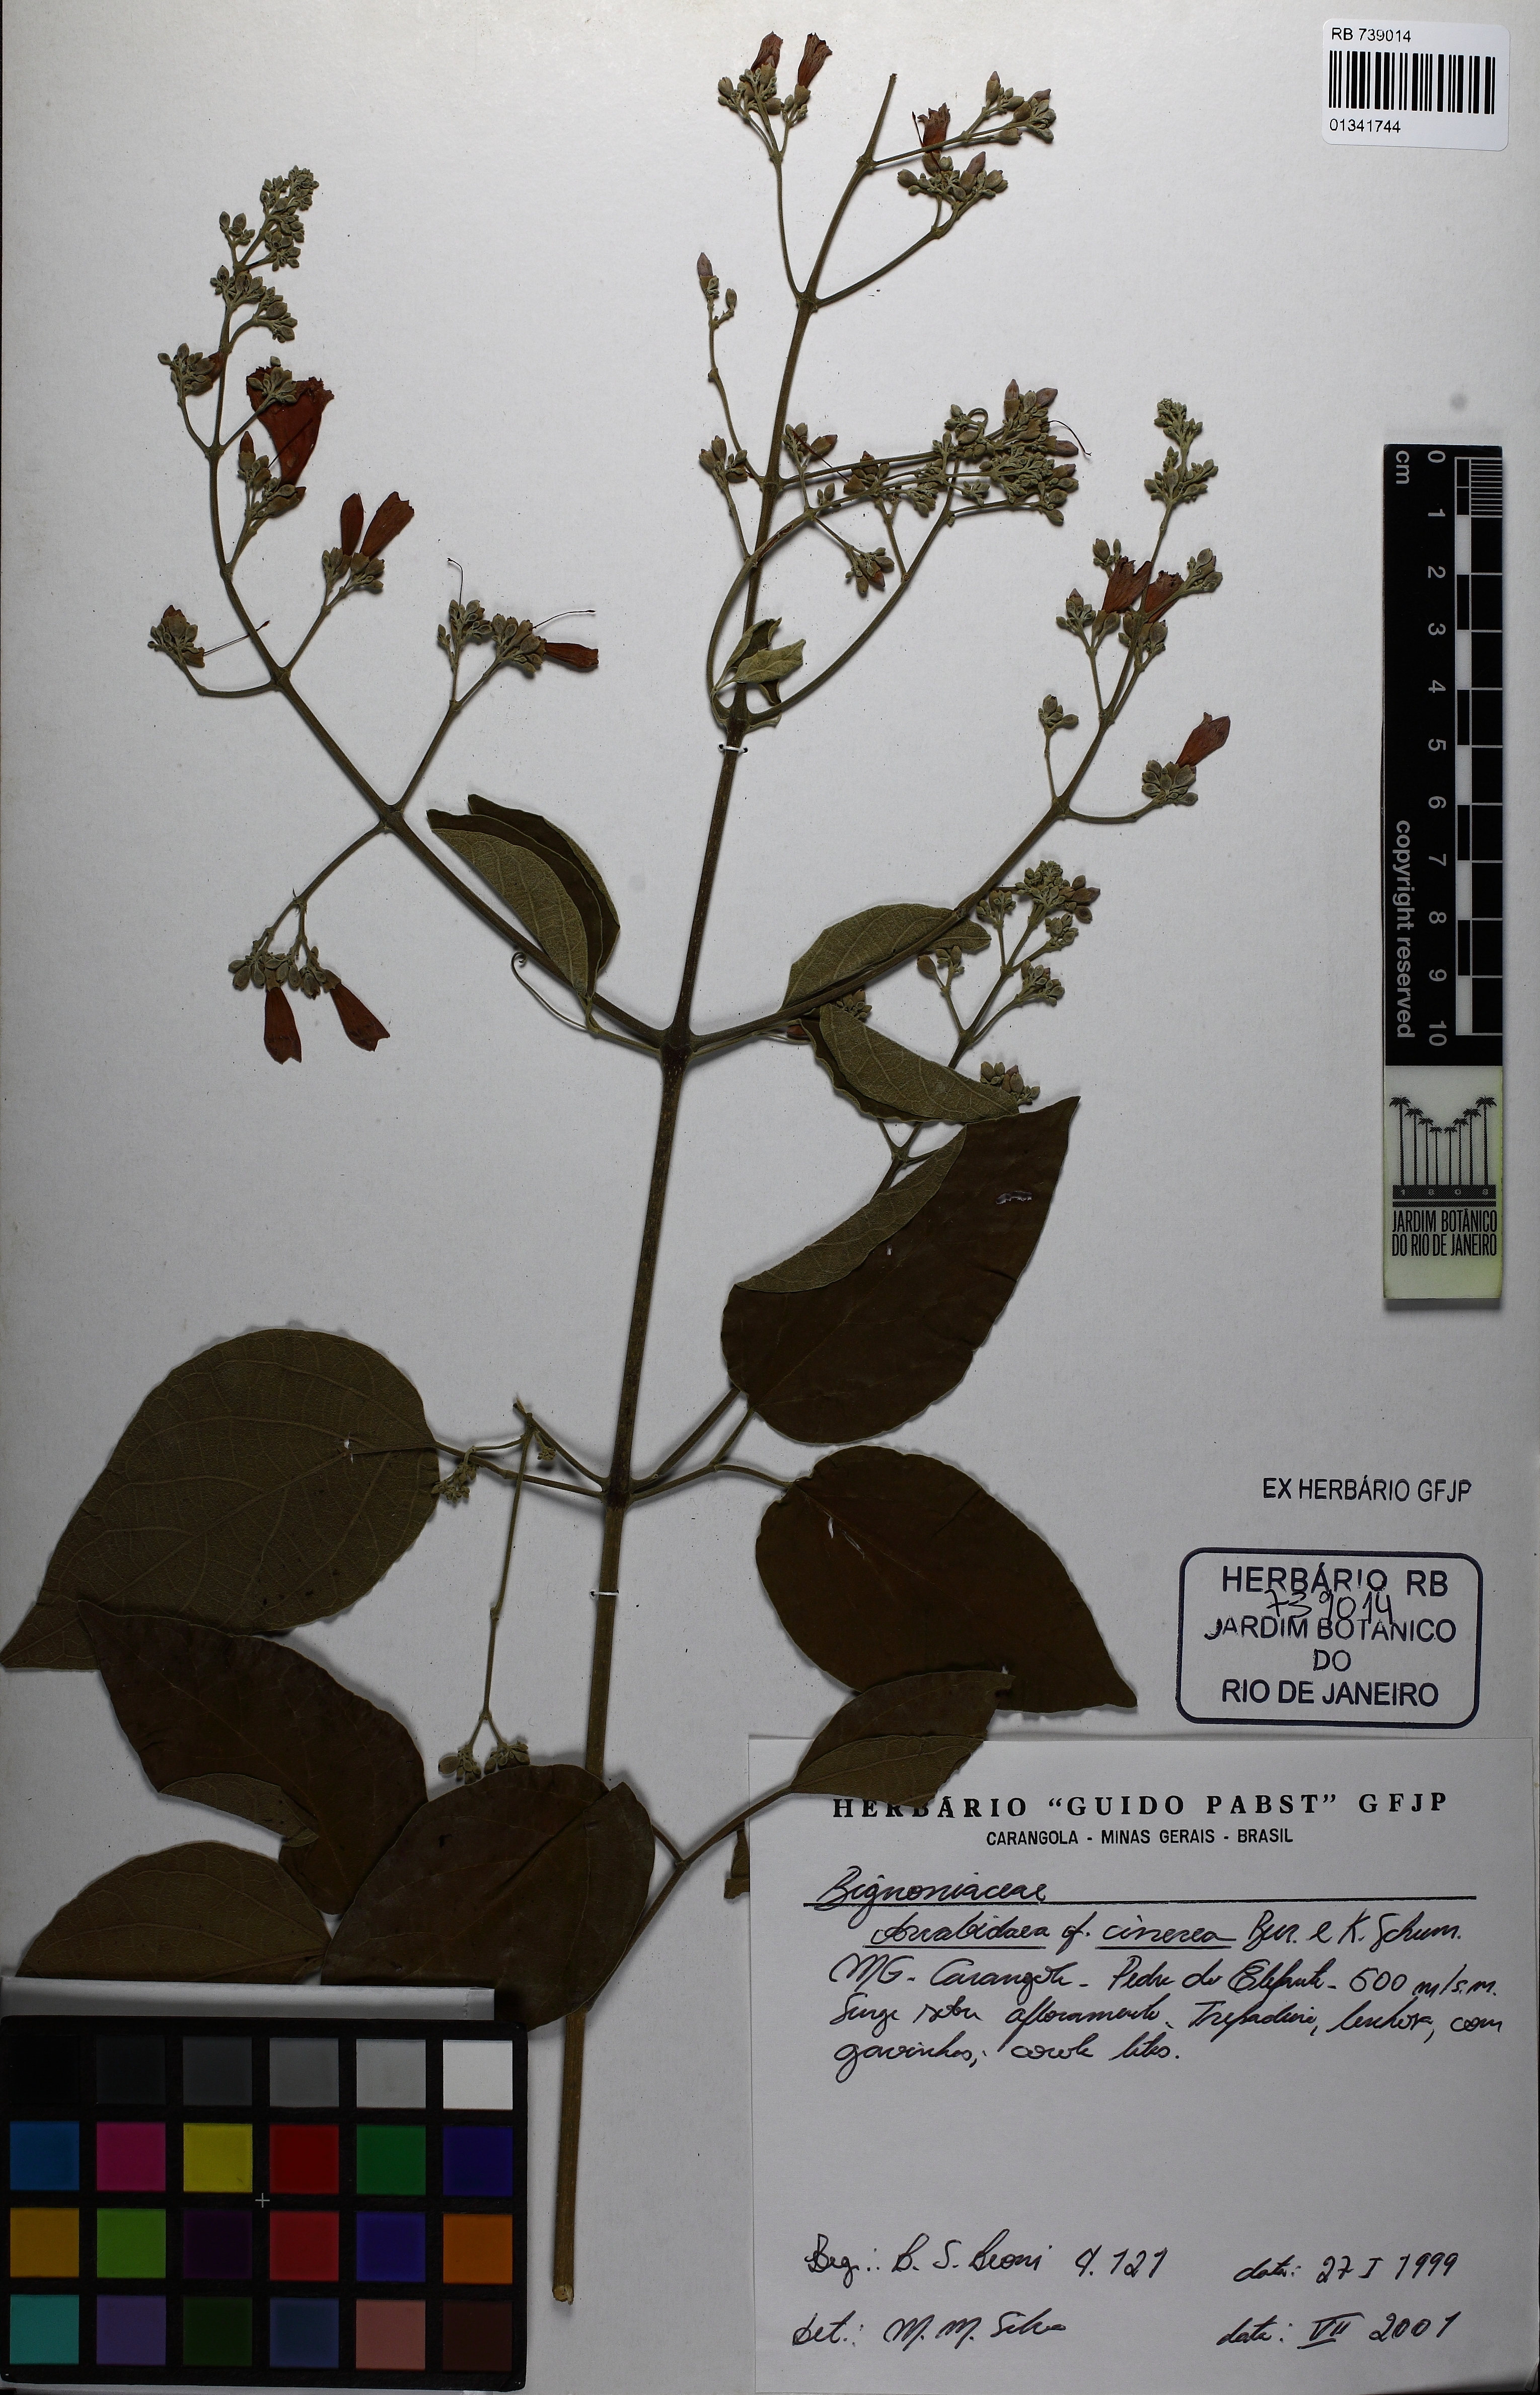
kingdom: Plantae
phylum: Tracheophyta
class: Magnoliopsida
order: Lamiales
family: Bignoniaceae
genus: Fridericia
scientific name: Fridericia cinerea
